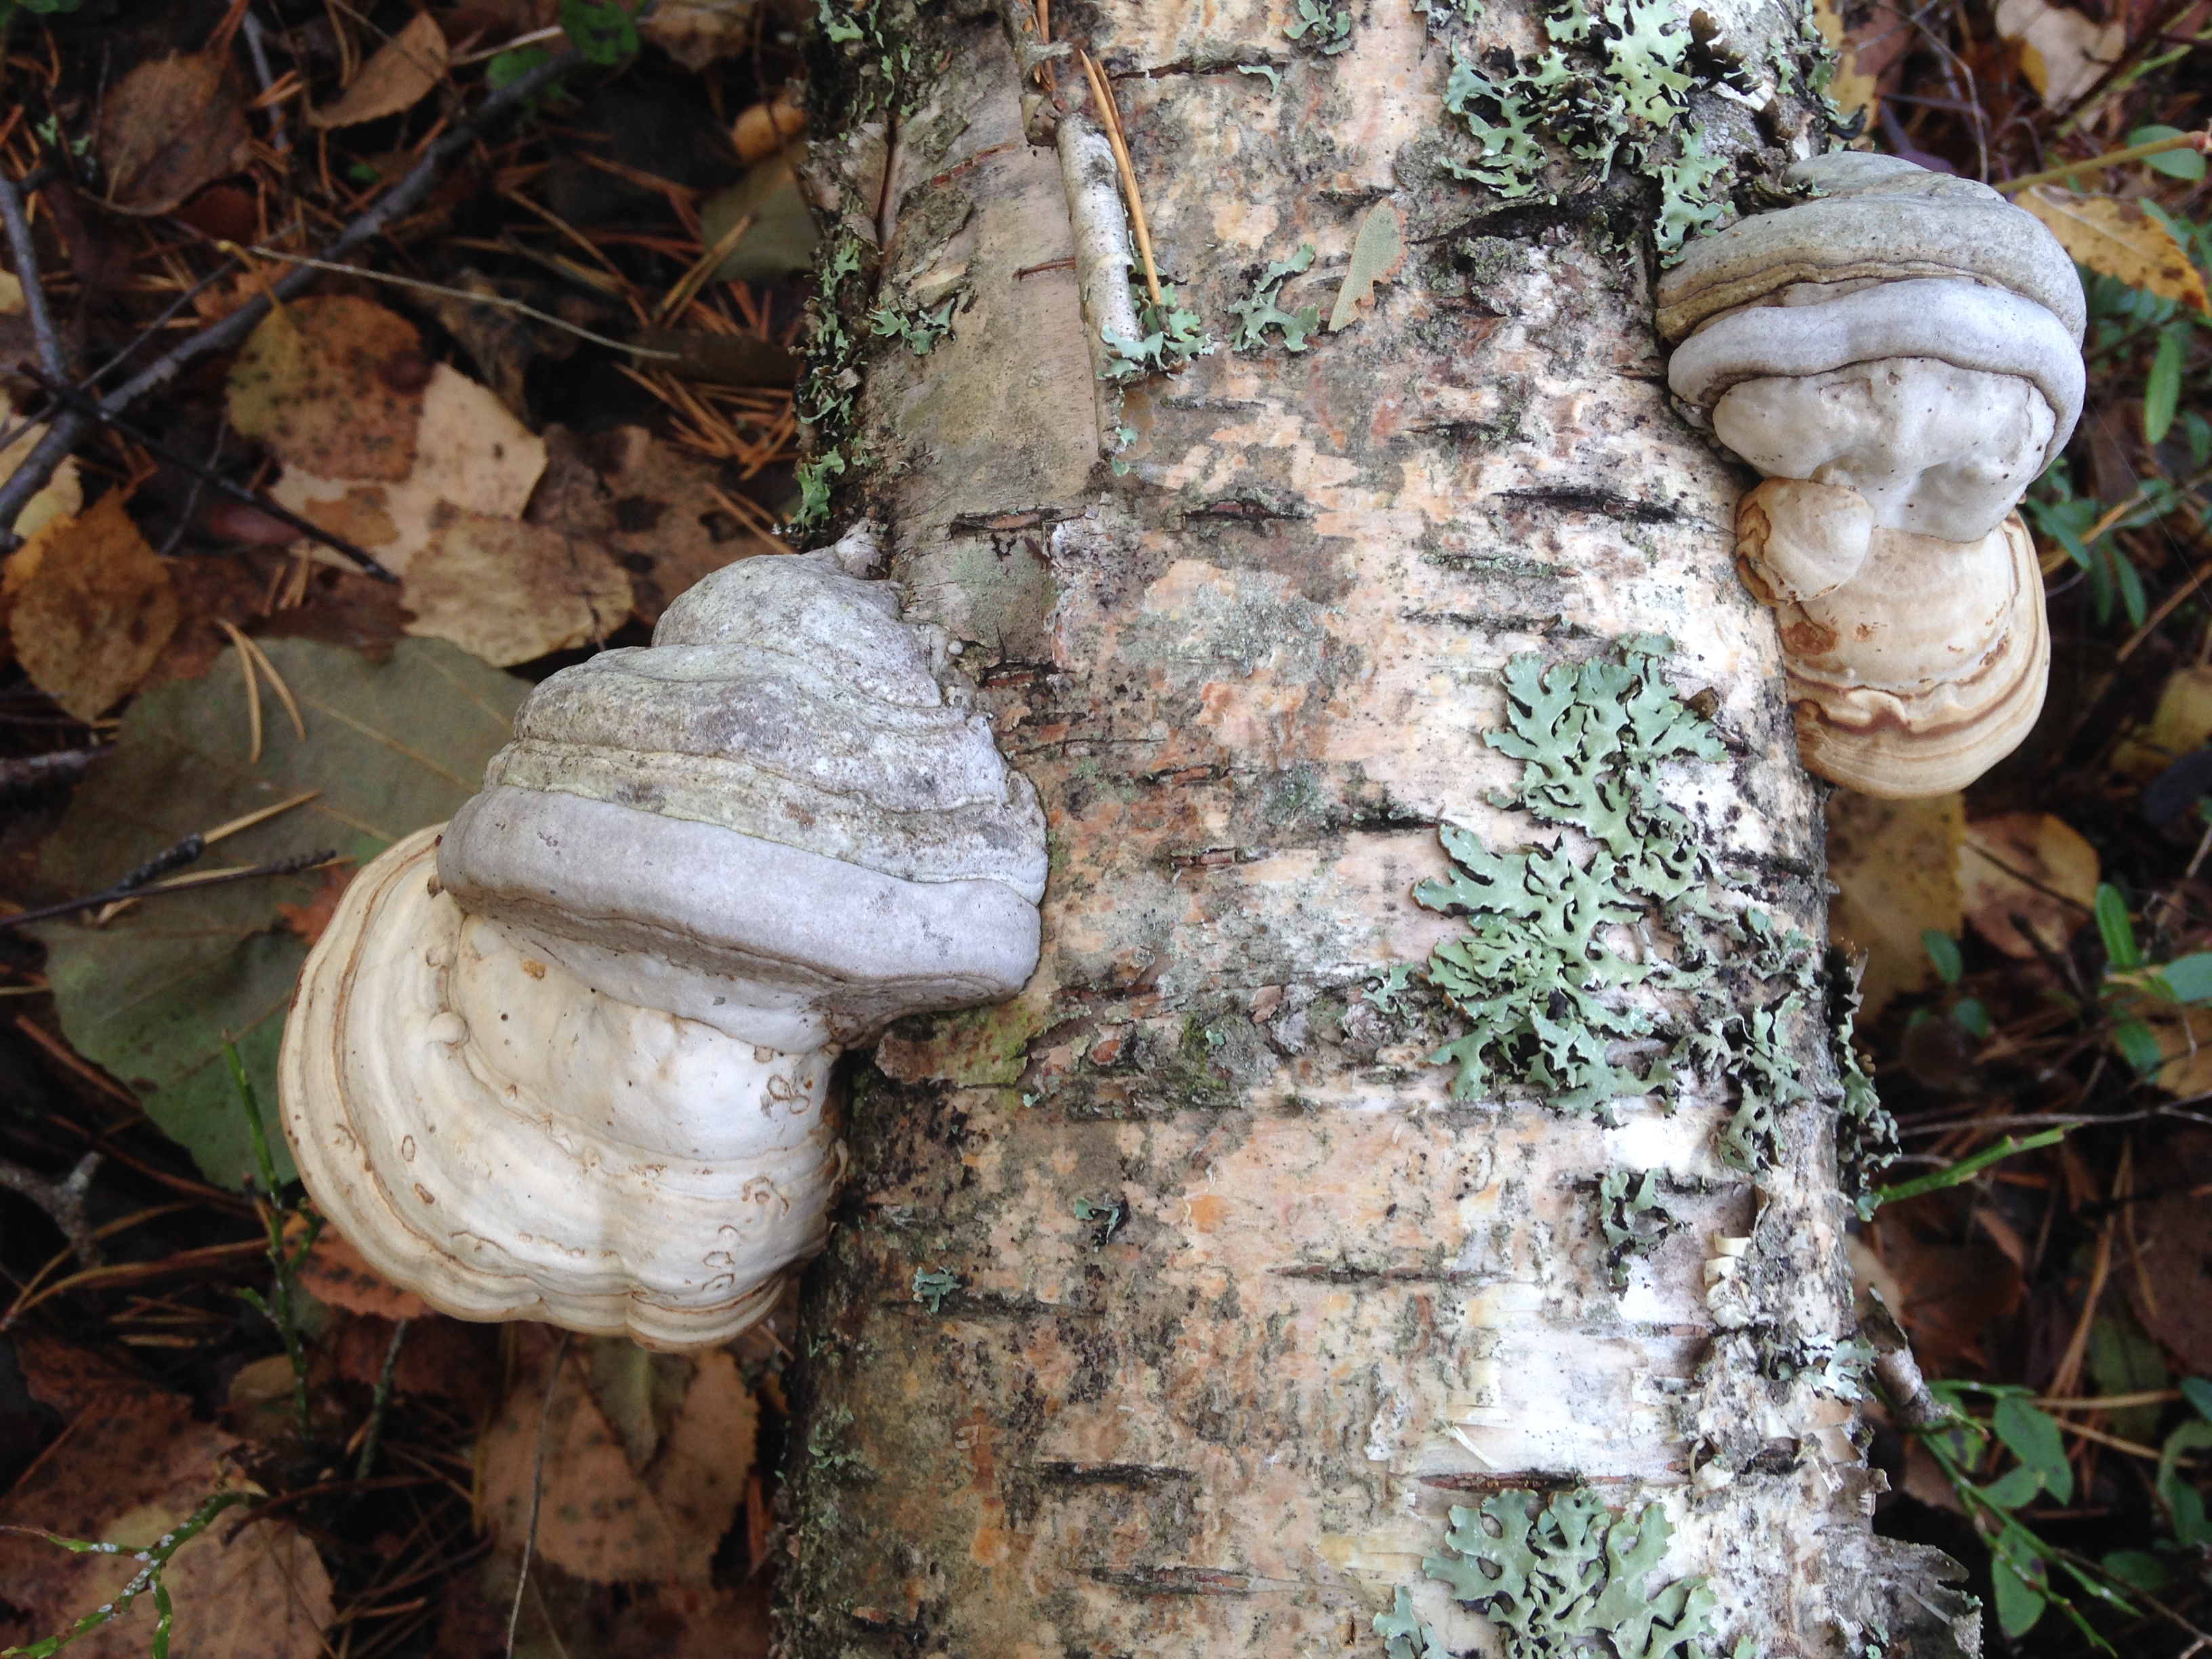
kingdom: Fungi
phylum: Basidiomycota
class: Agaricomycetes
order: Polyporales
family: Polyporaceae
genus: Fomes
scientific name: Fomes fomentarius
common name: Hoof fungus
